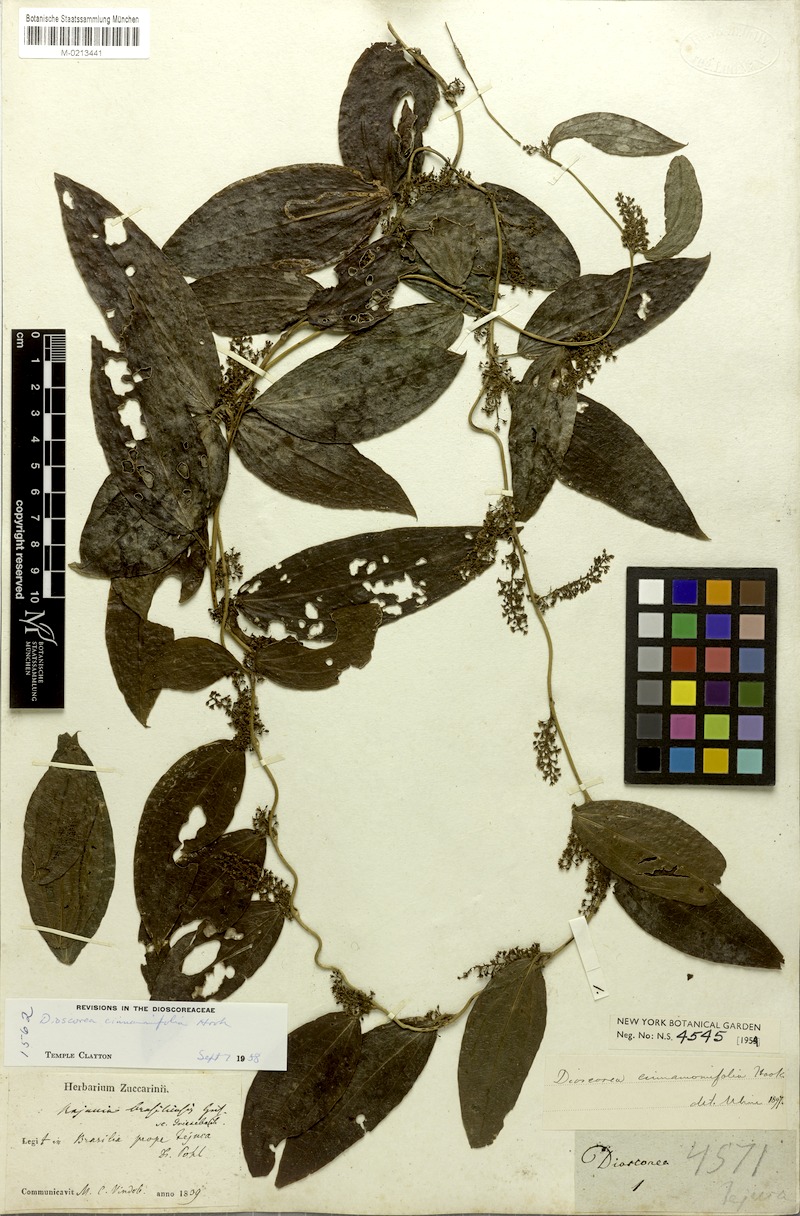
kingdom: Plantae
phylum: Tracheophyta
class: Liliopsida
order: Dioscoreales
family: Dioscoreaceae
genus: Dioscorea
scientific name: Dioscorea cinnamomifolia
